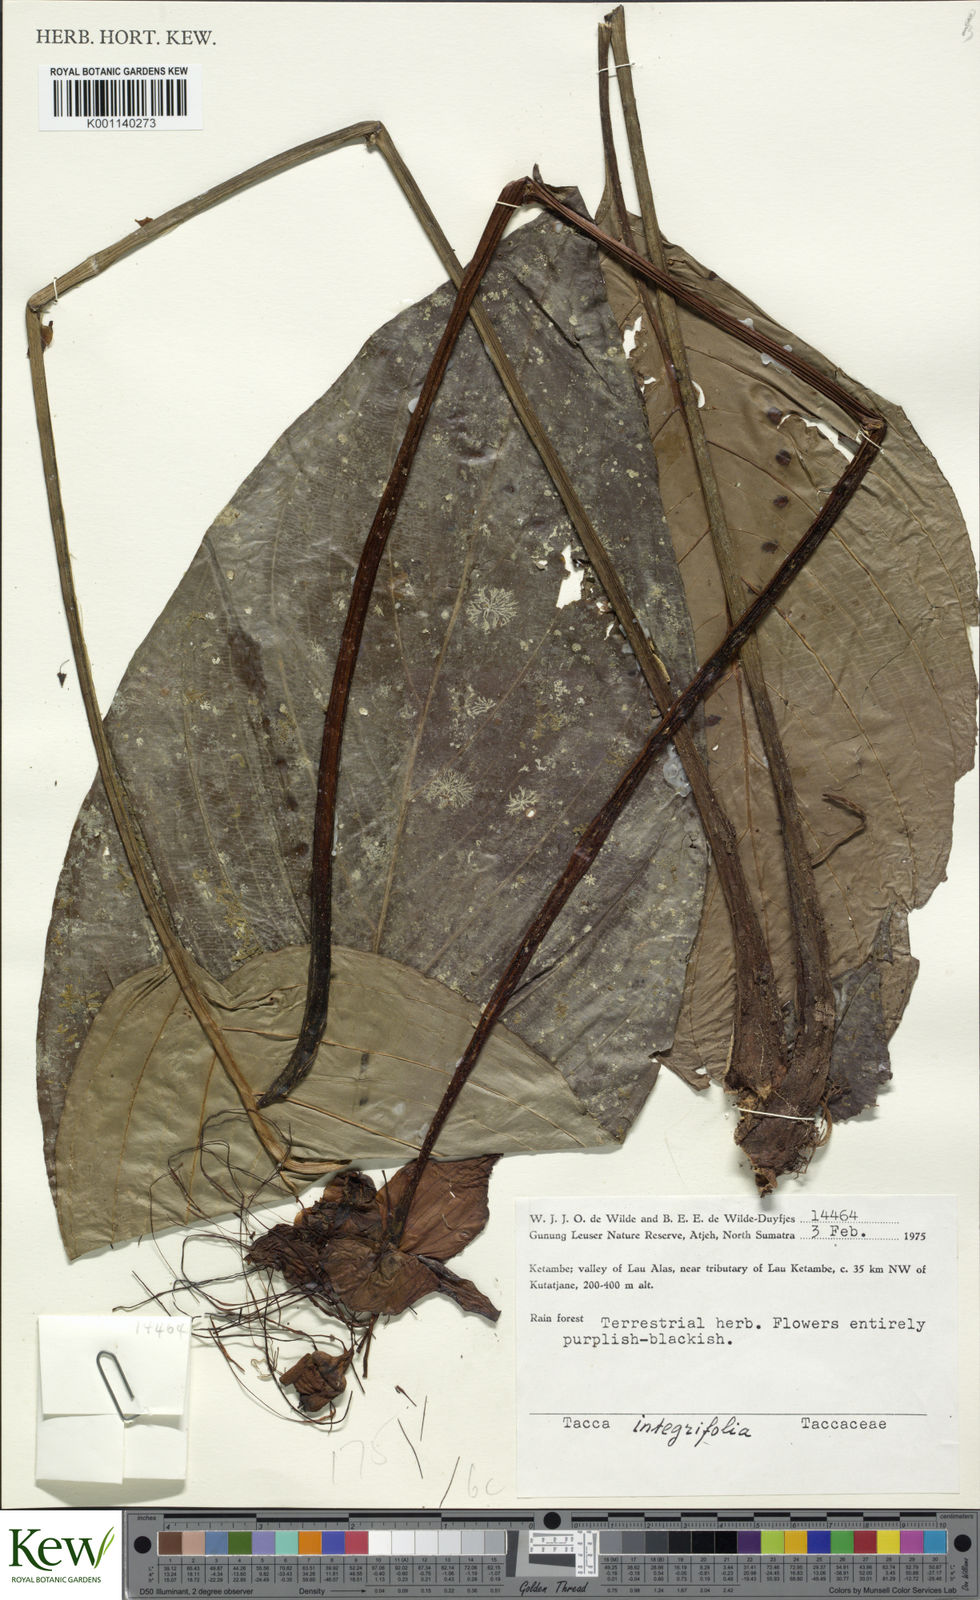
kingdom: Plantae
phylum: Tracheophyta
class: Liliopsida
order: Dioscoreales
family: Dioscoreaceae
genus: Tacca
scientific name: Tacca integrifolia
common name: Batplant
